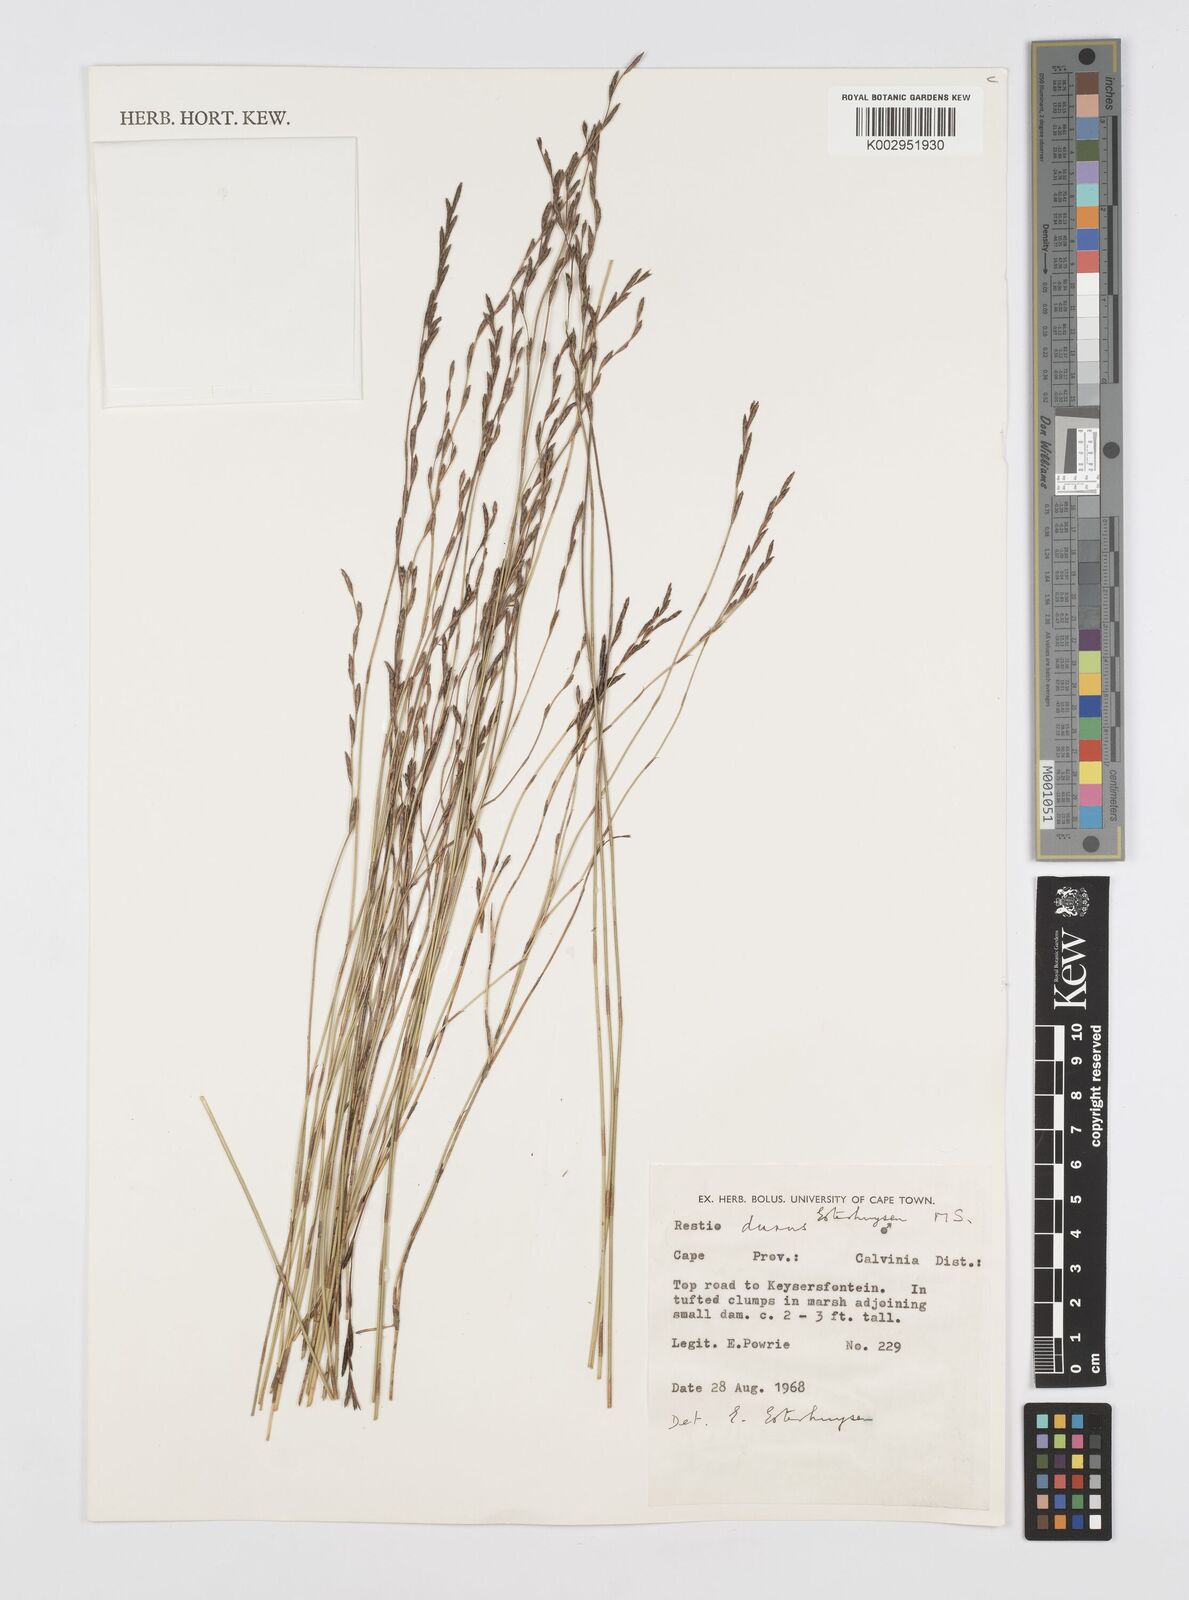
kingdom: Plantae
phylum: Tracheophyta
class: Liliopsida
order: Poales
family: Restionaceae
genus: Restio
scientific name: Restio durus
